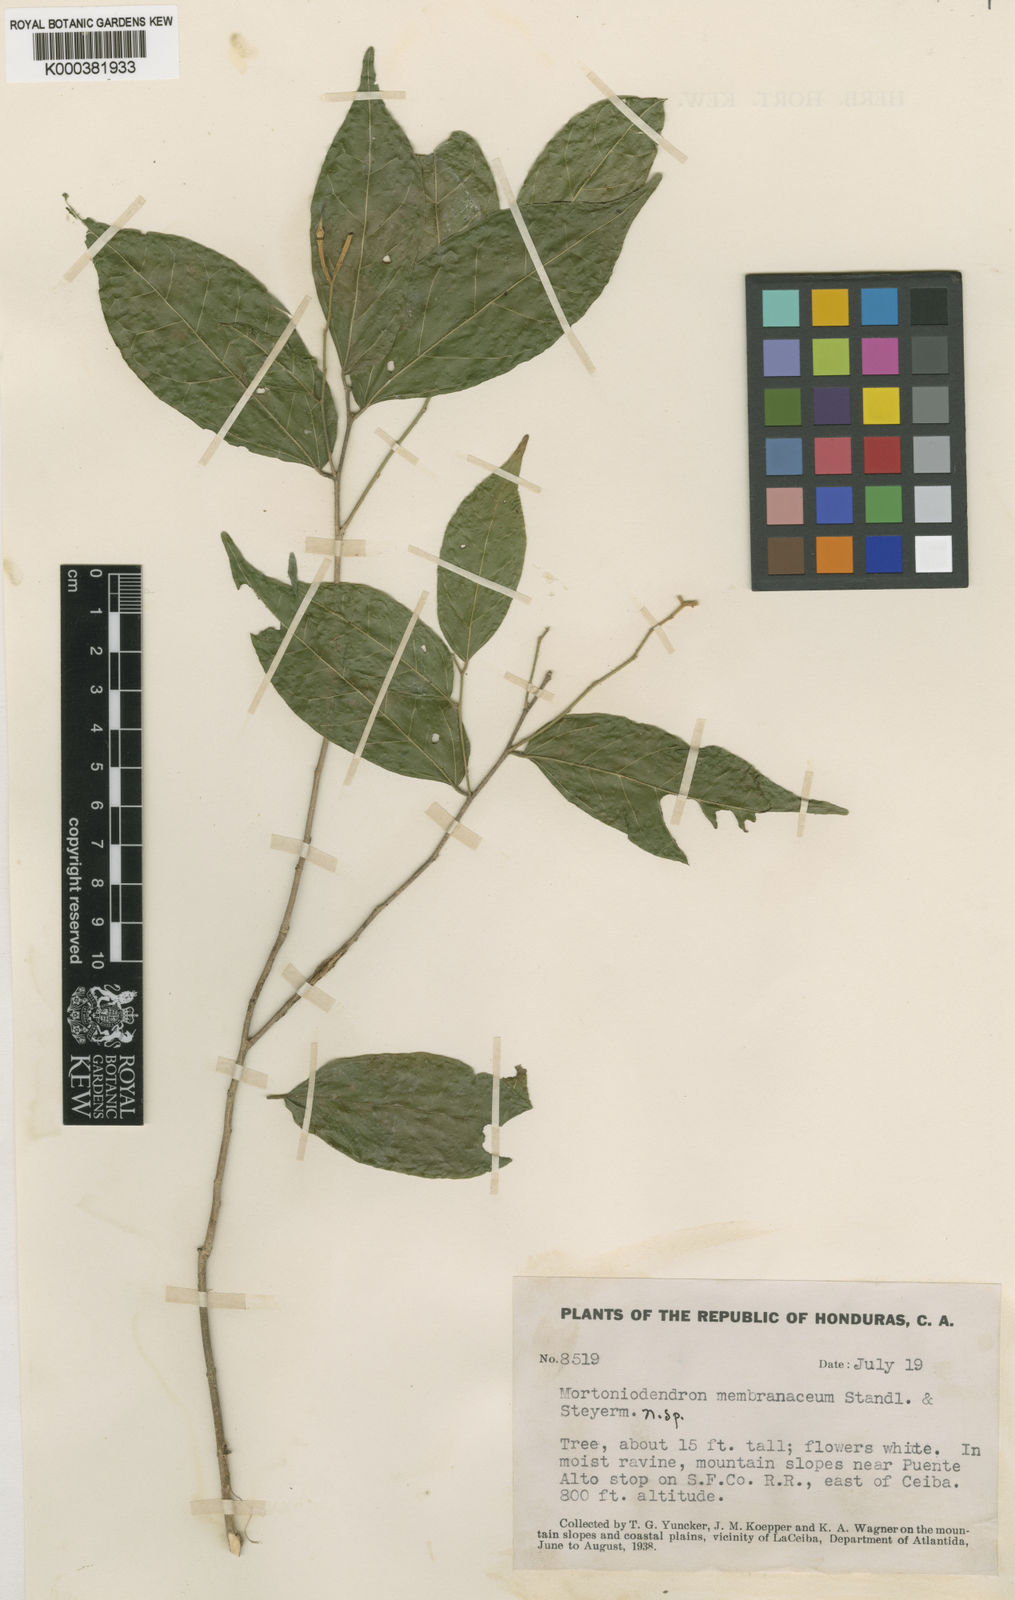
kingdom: Plantae
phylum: Tracheophyta
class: Magnoliopsida
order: Malvales
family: Malvaceae
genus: Mortoniodendron
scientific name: Mortoniodendron membranaceum
